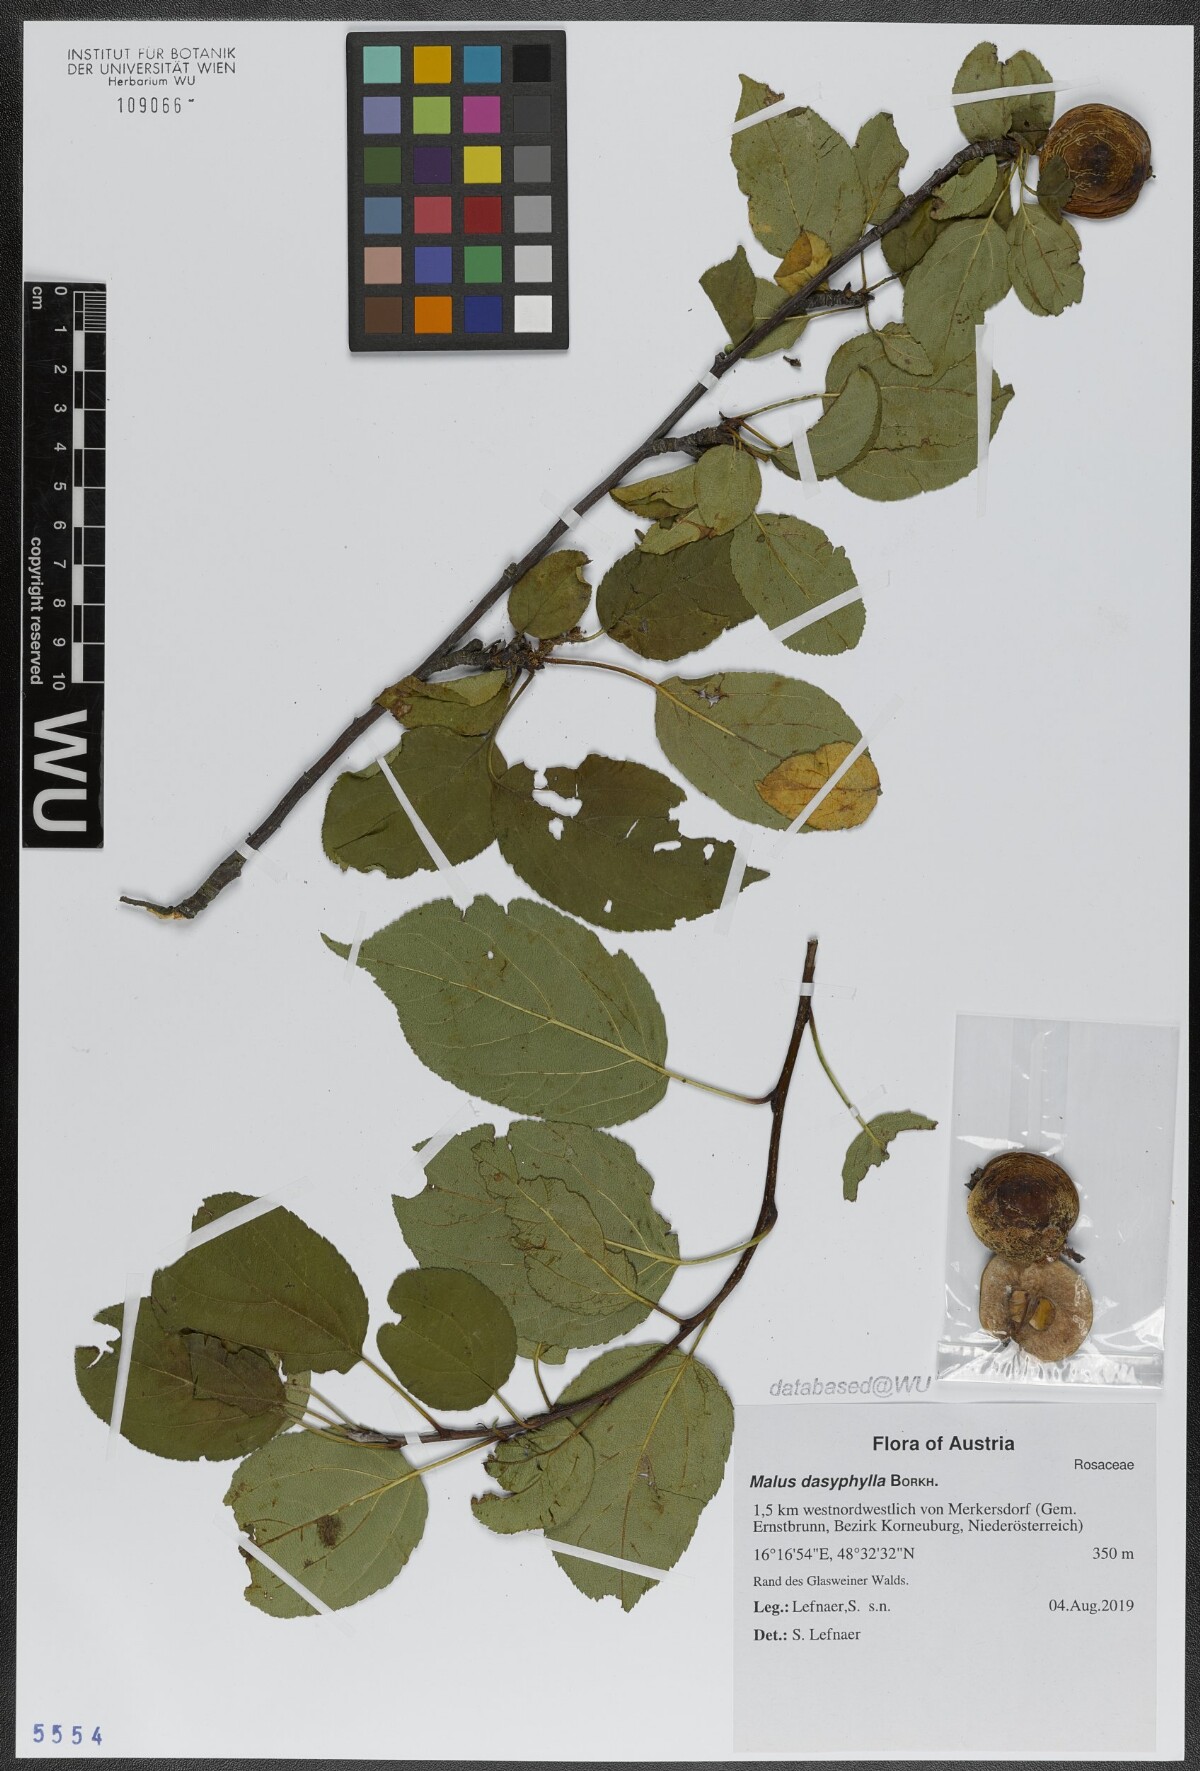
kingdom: Plantae
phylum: Tracheophyta
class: Magnoliopsida
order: Rosales
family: Rosaceae
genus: Malus
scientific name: Malus dasyphylla
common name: Paradise apple
